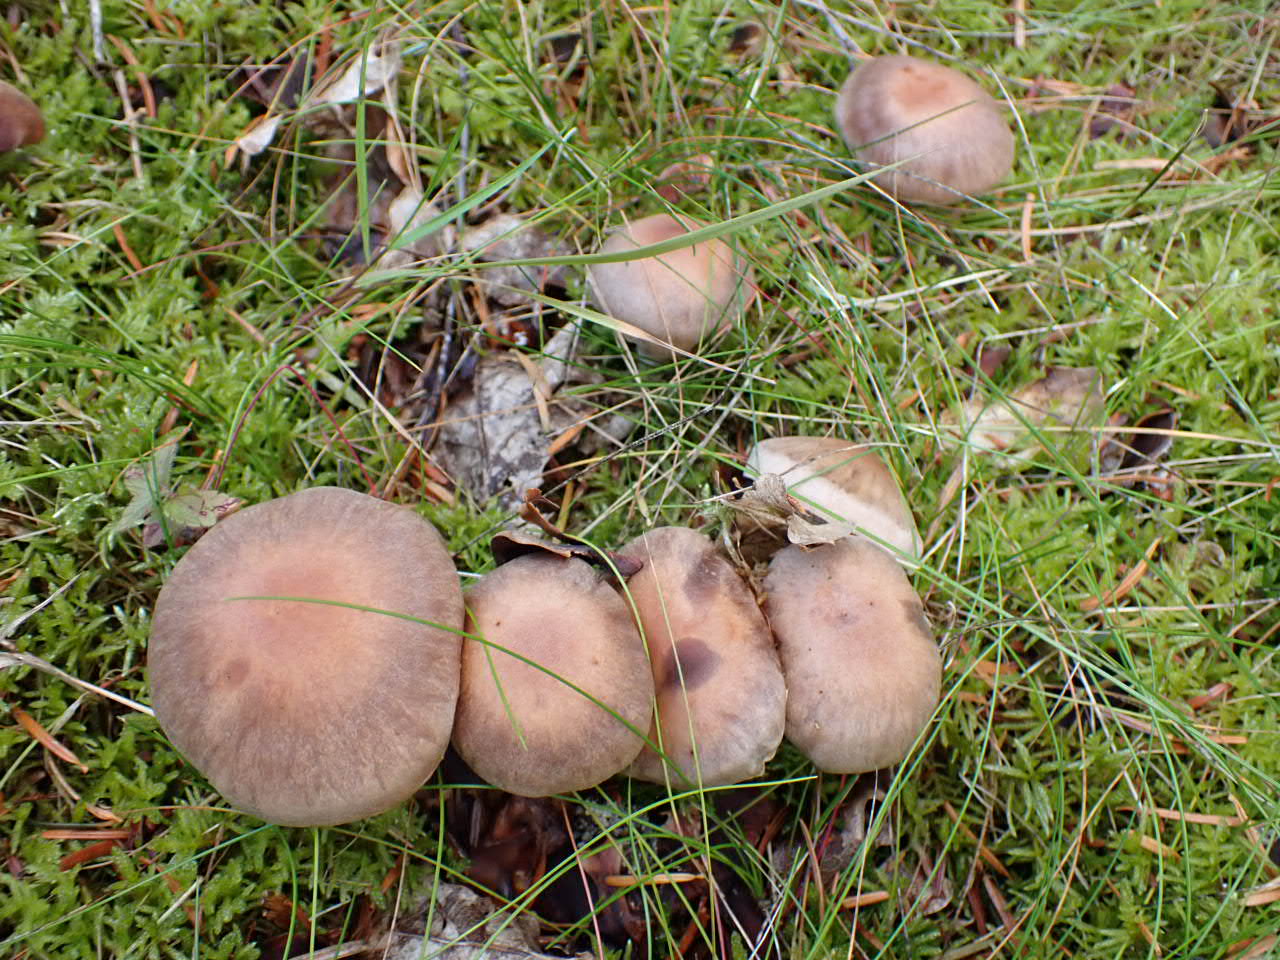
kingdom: Fungi
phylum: Basidiomycota
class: Agaricomycetes
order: Agaricales
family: Cortinariaceae
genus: Cortinarius
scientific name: Cortinarius
